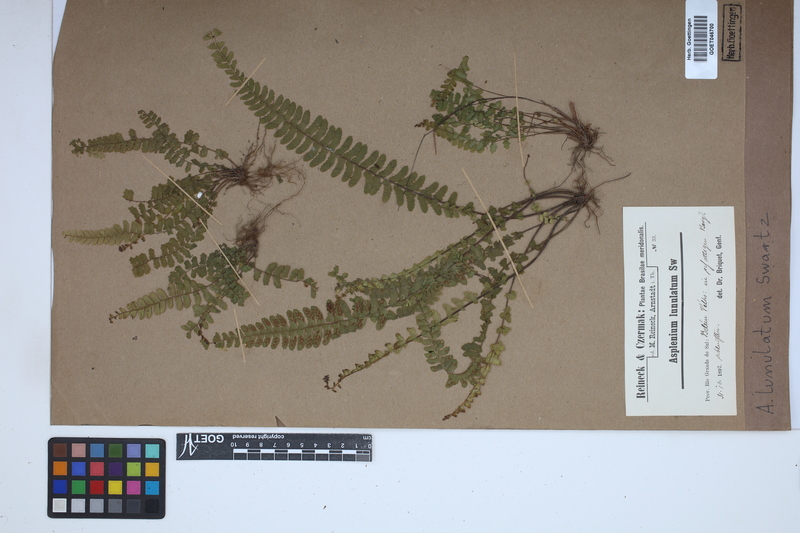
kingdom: Plantae
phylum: Tracheophyta
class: Polypodiopsida
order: Polypodiales
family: Aspleniaceae
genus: Asplenium
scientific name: Asplenium lunulatum
